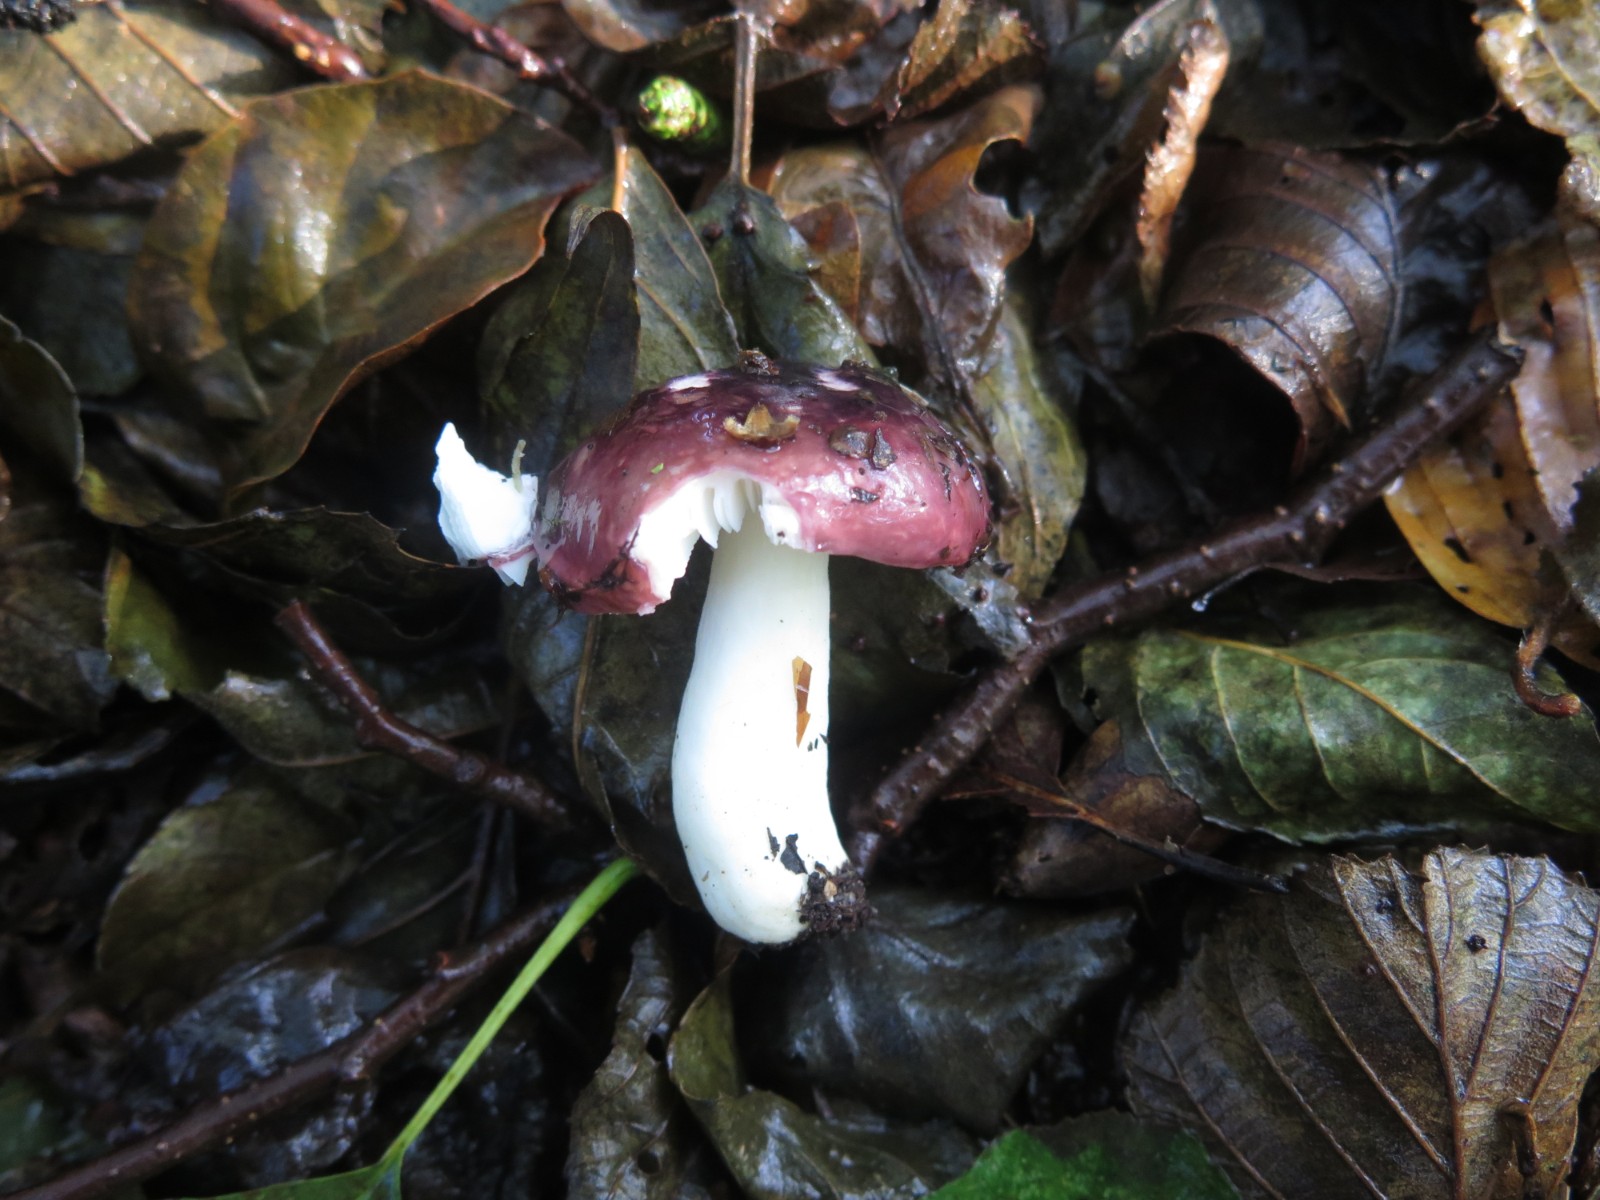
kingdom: Fungi
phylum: Basidiomycota
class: Agaricomycetes
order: Russulales
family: Russulaceae
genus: Russula
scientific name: Russula fragilis
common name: savbladet skørhat
